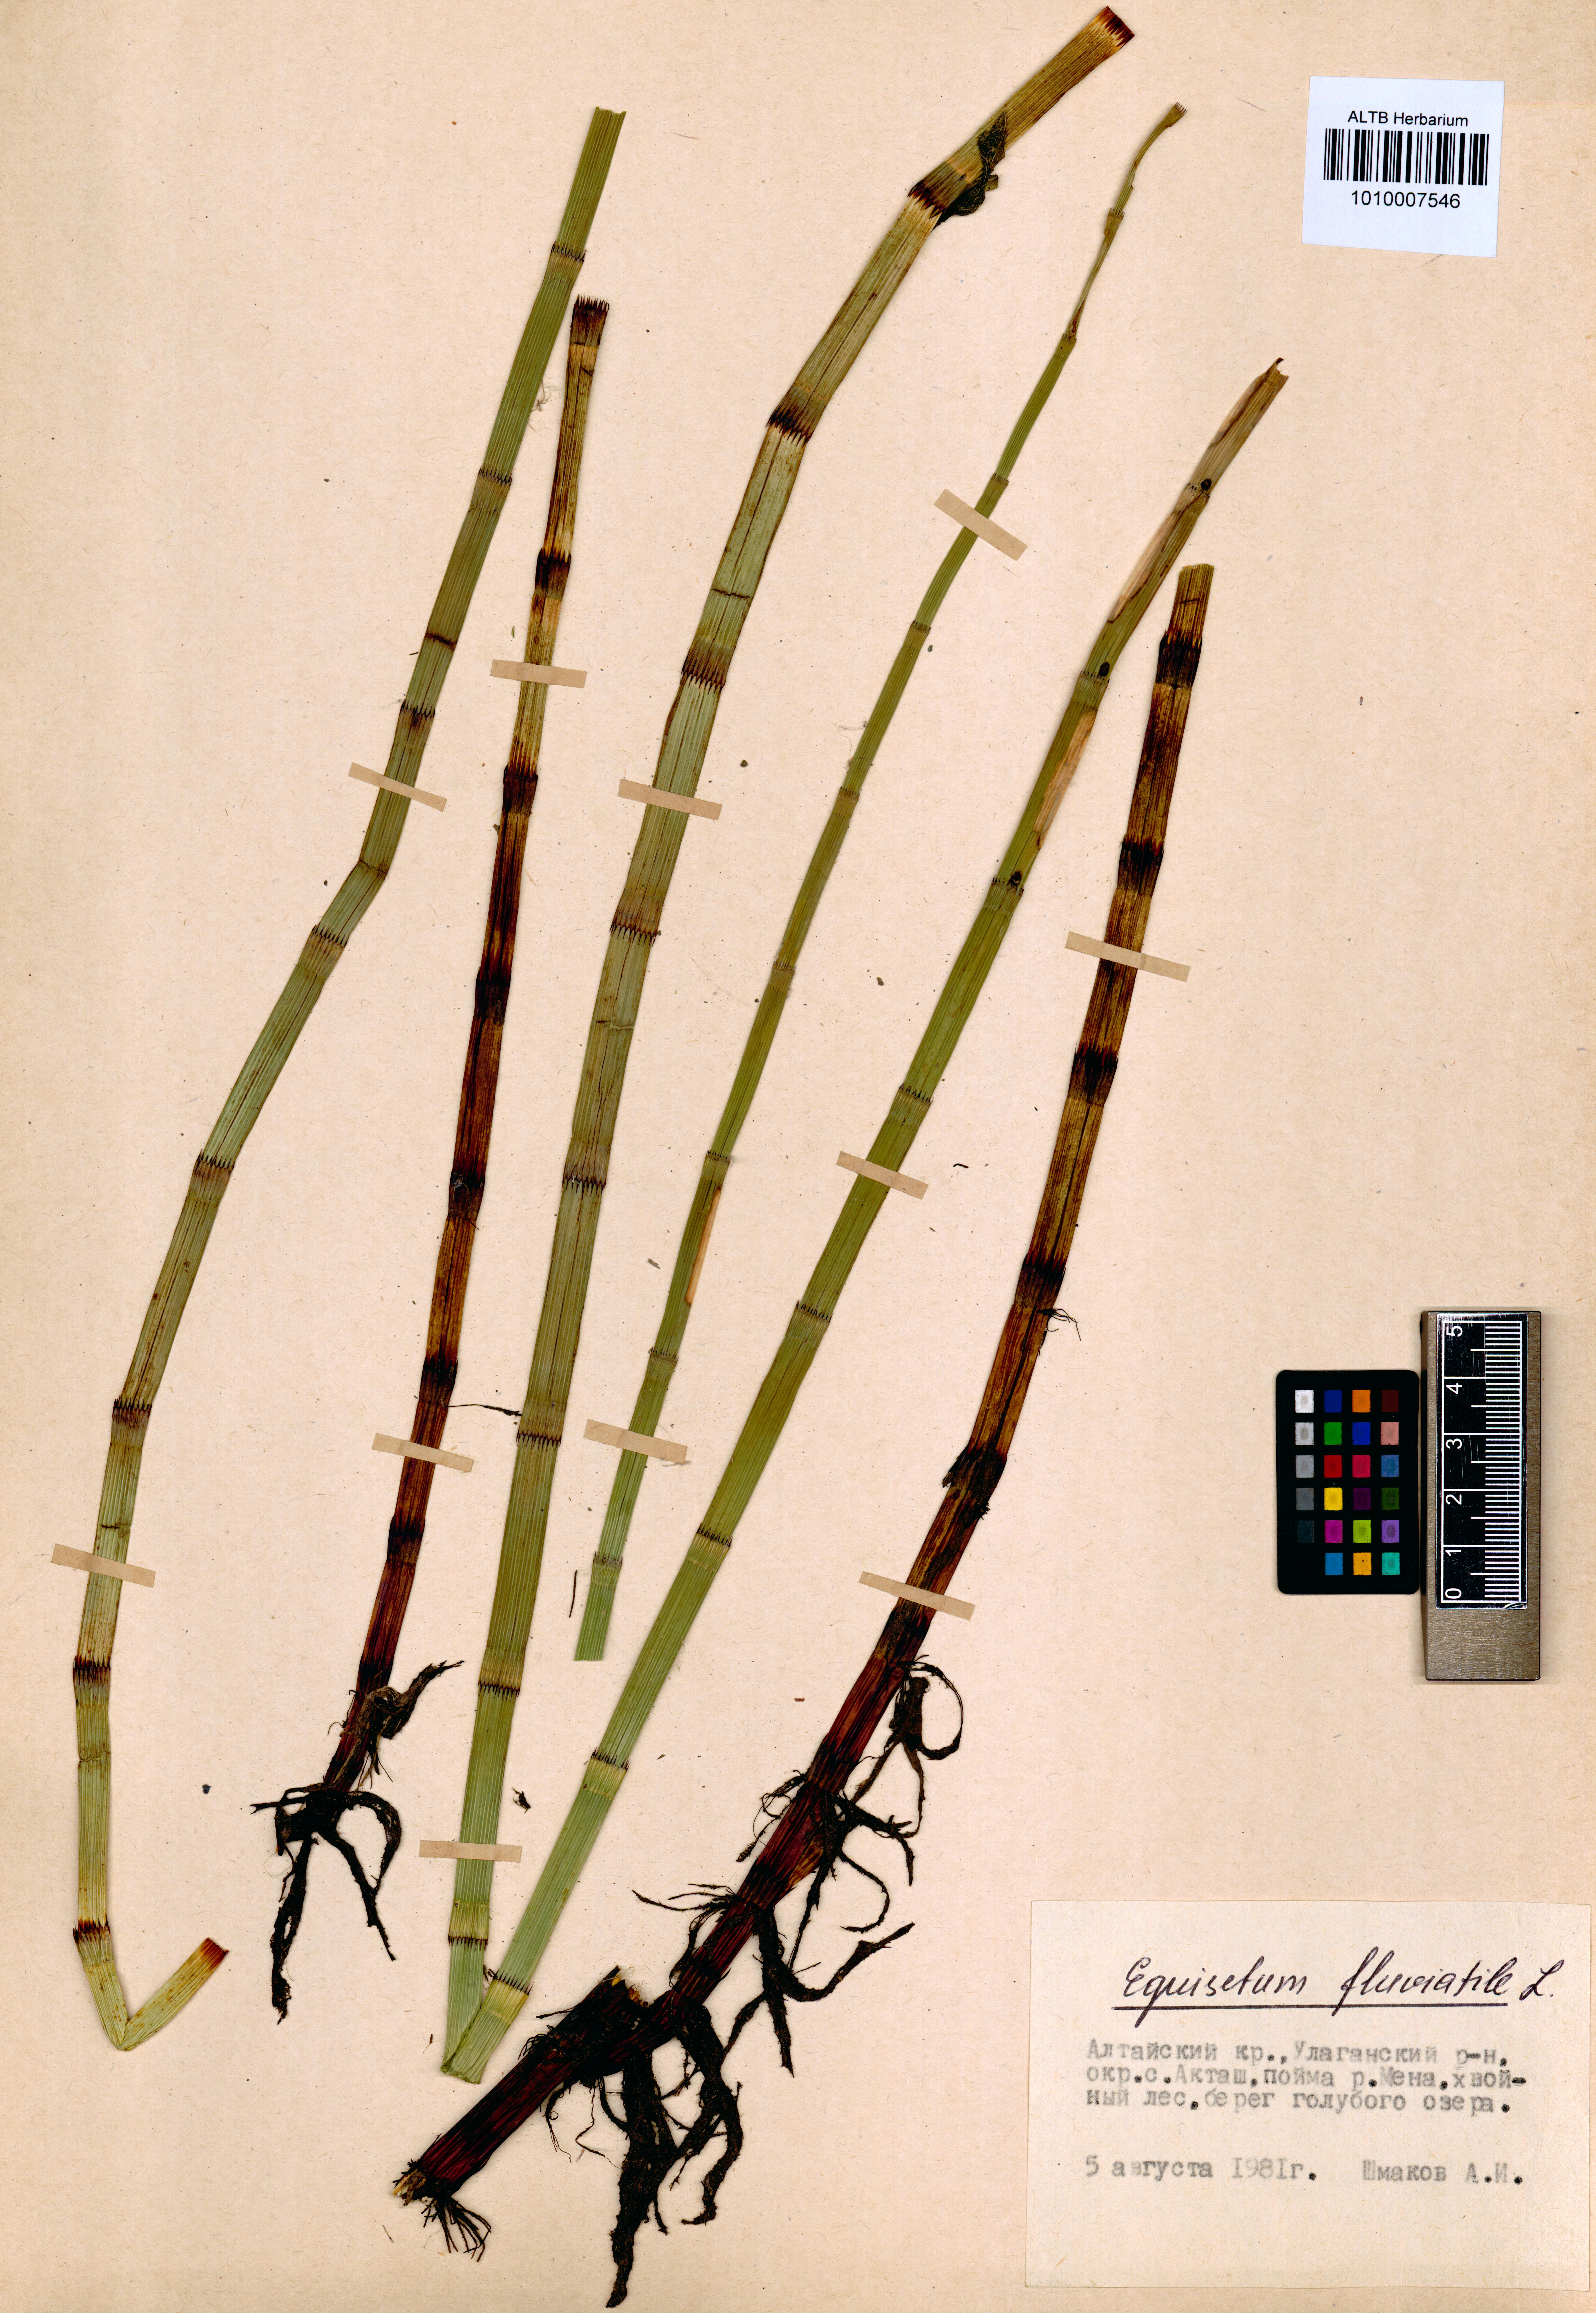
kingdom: Plantae
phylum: Tracheophyta
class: Polypodiopsida
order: Equisetales
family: Equisetaceae
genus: Equisetum
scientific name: Equisetum fluviatile
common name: Water horsetail
